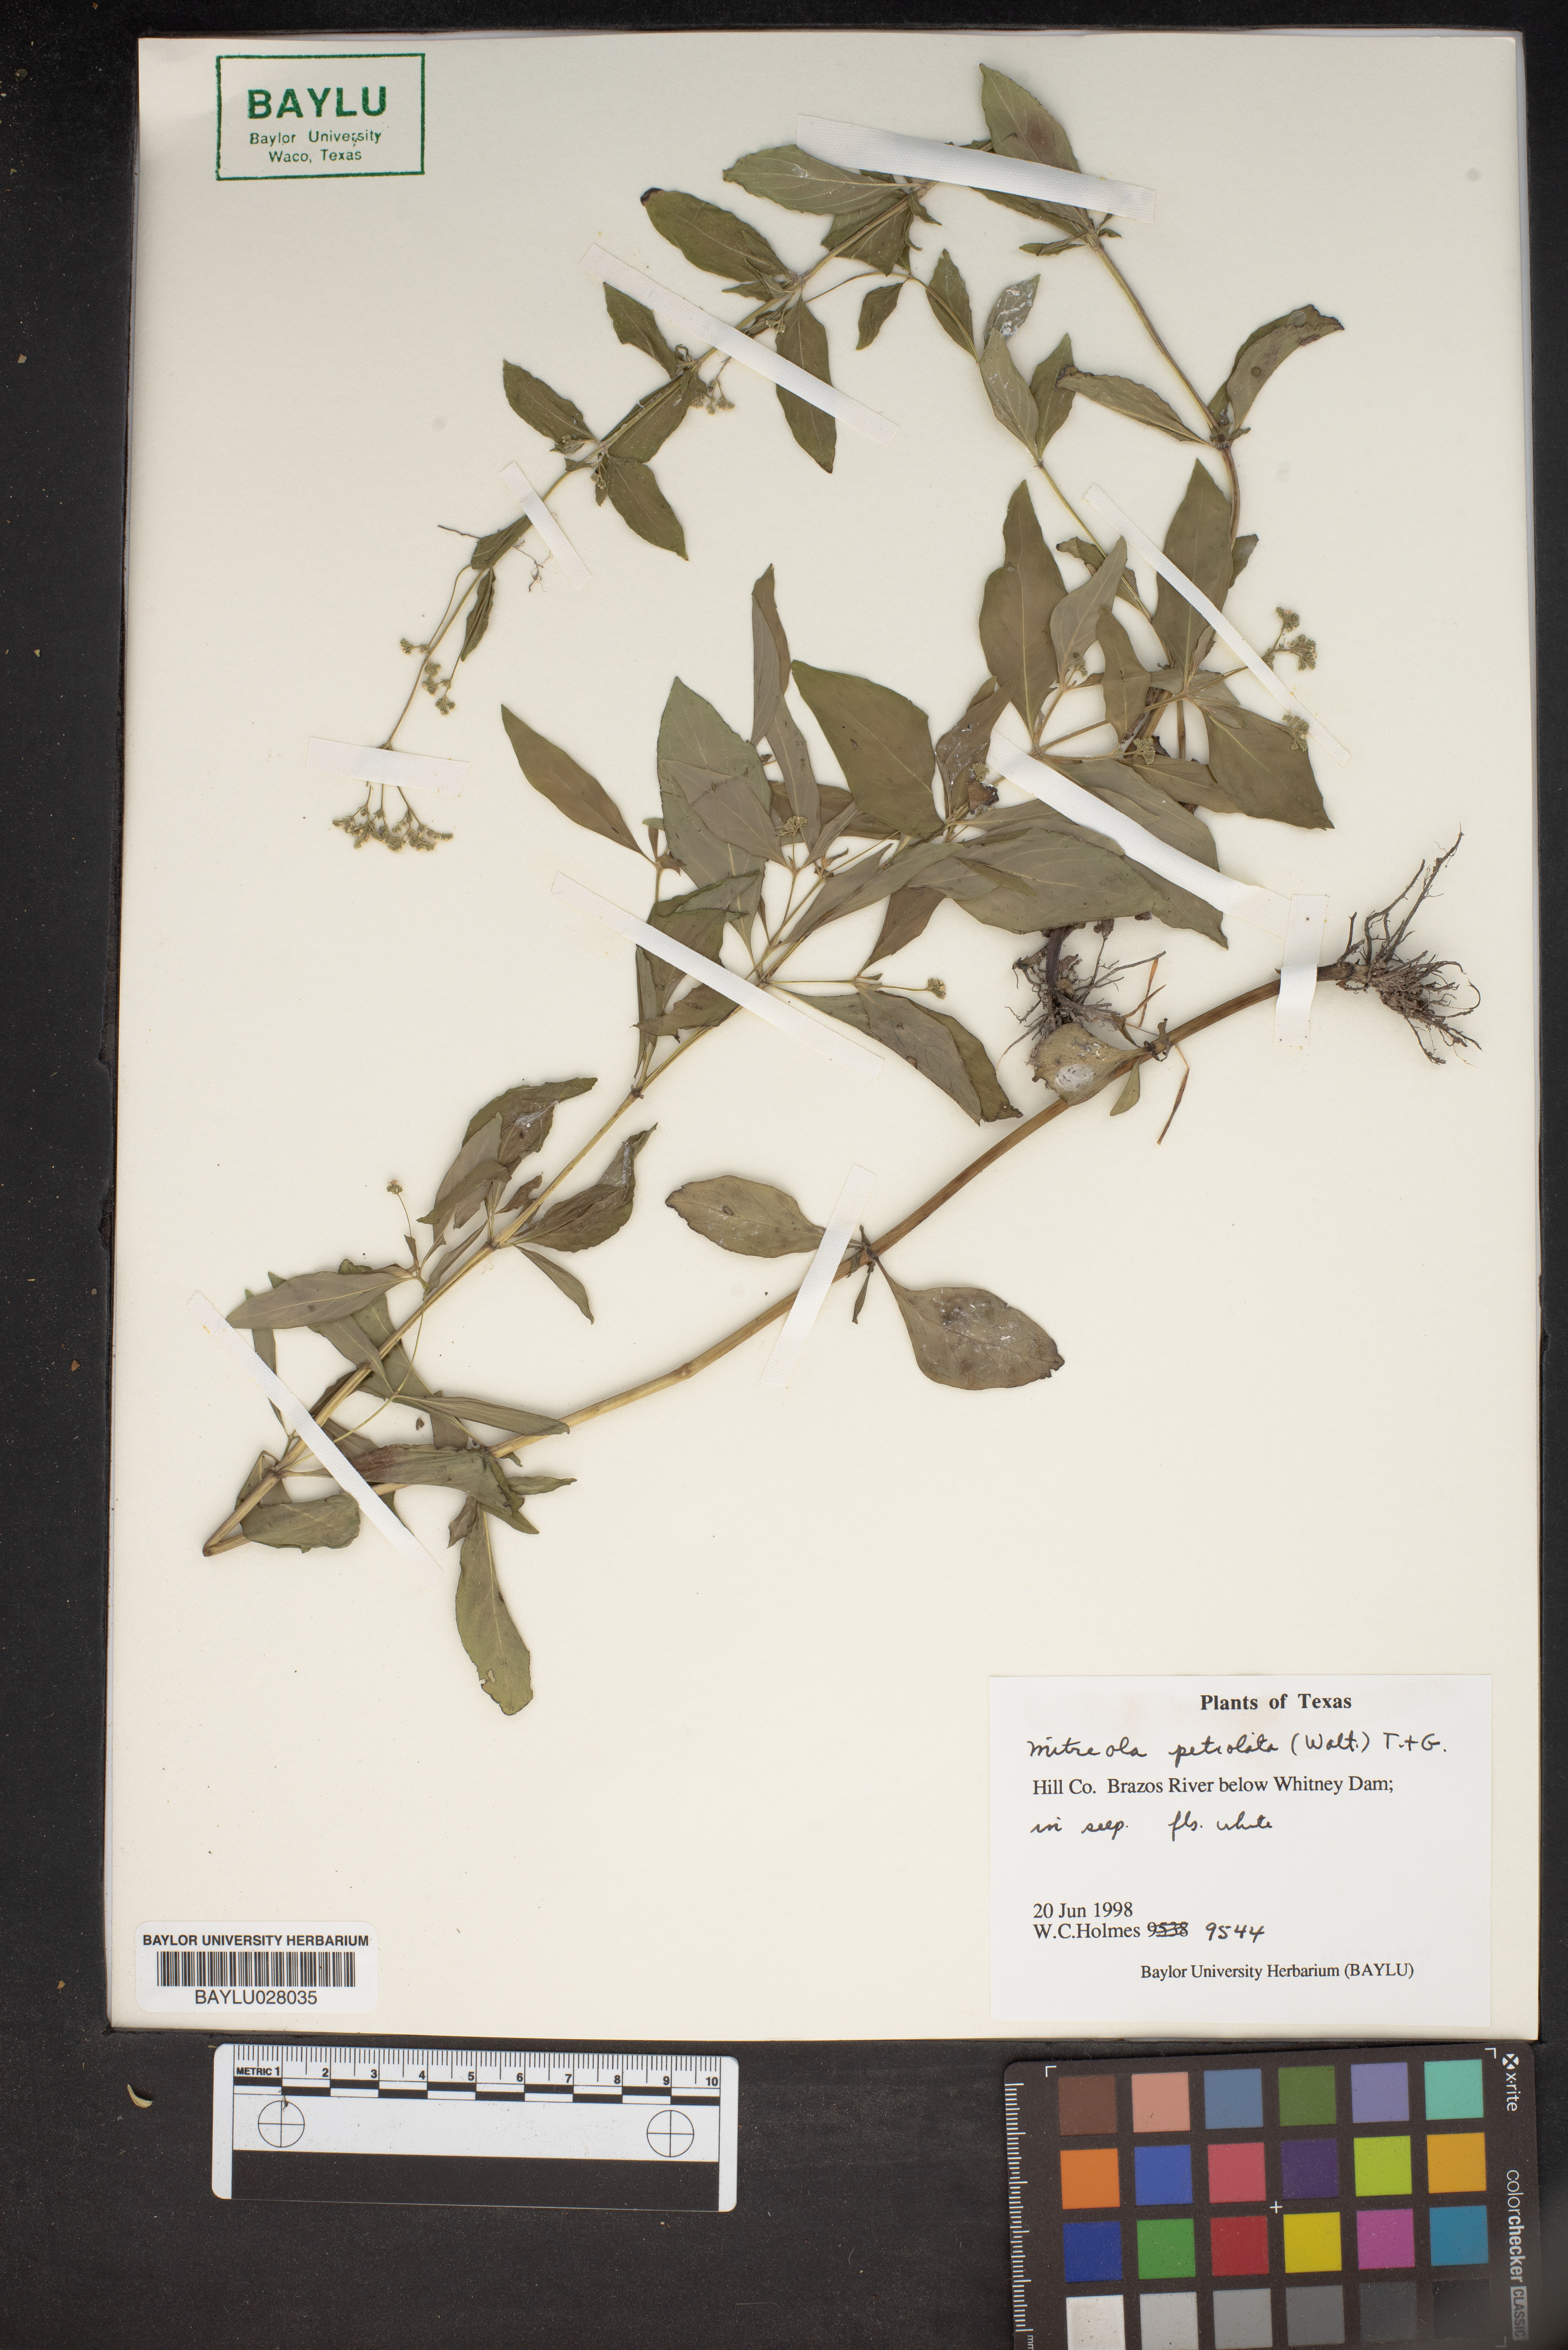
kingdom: Plantae
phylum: Tracheophyta
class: Magnoliopsida
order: Gentianales
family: Loganiaceae
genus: Mitreola
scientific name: Mitreola petiolata
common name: Lax hornpod
